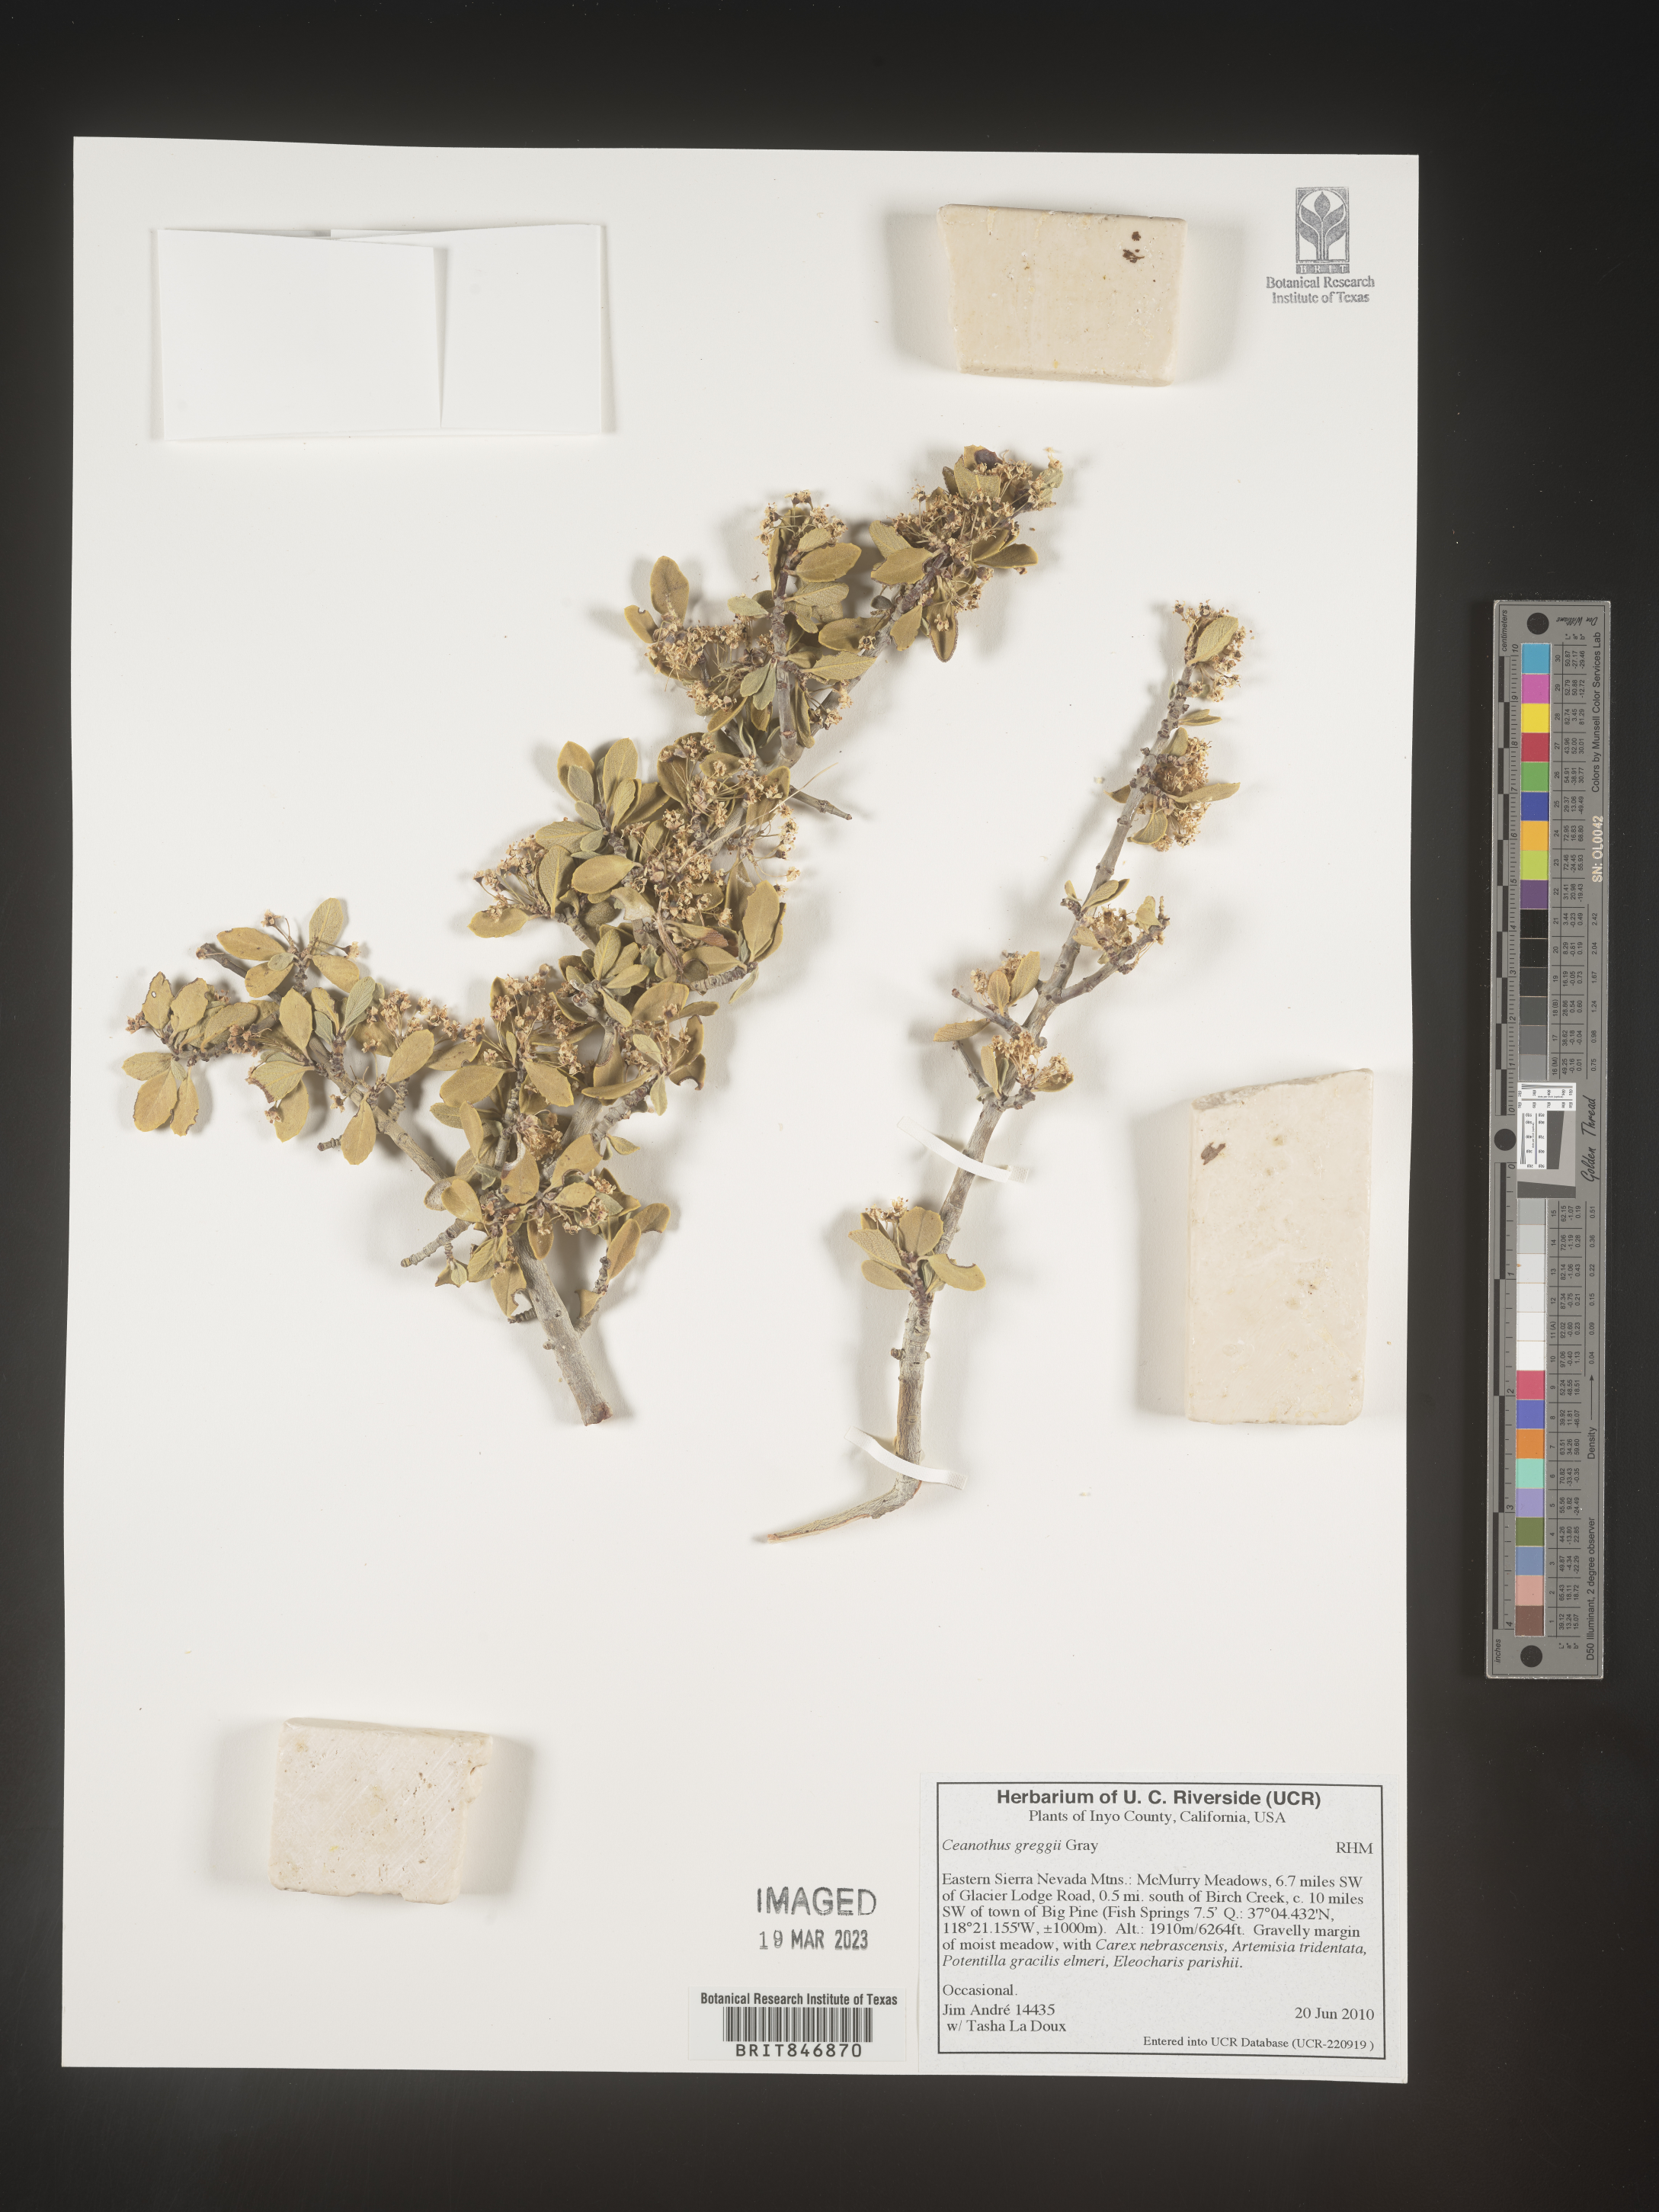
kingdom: Plantae
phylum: Tracheophyta
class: Magnoliopsida
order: Rosales
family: Rhamnaceae
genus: Ceanothus
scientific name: Ceanothus
